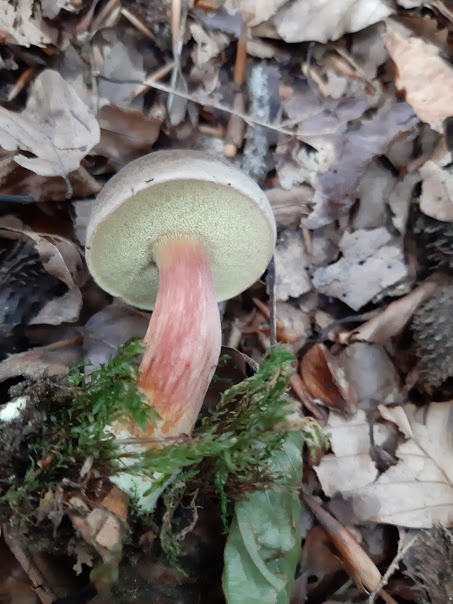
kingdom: Fungi
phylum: Basidiomycota
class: Agaricomycetes
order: Boletales
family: Boletaceae
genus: Xerocomellus
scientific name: Xerocomellus pruinatus
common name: dugget rørhat
